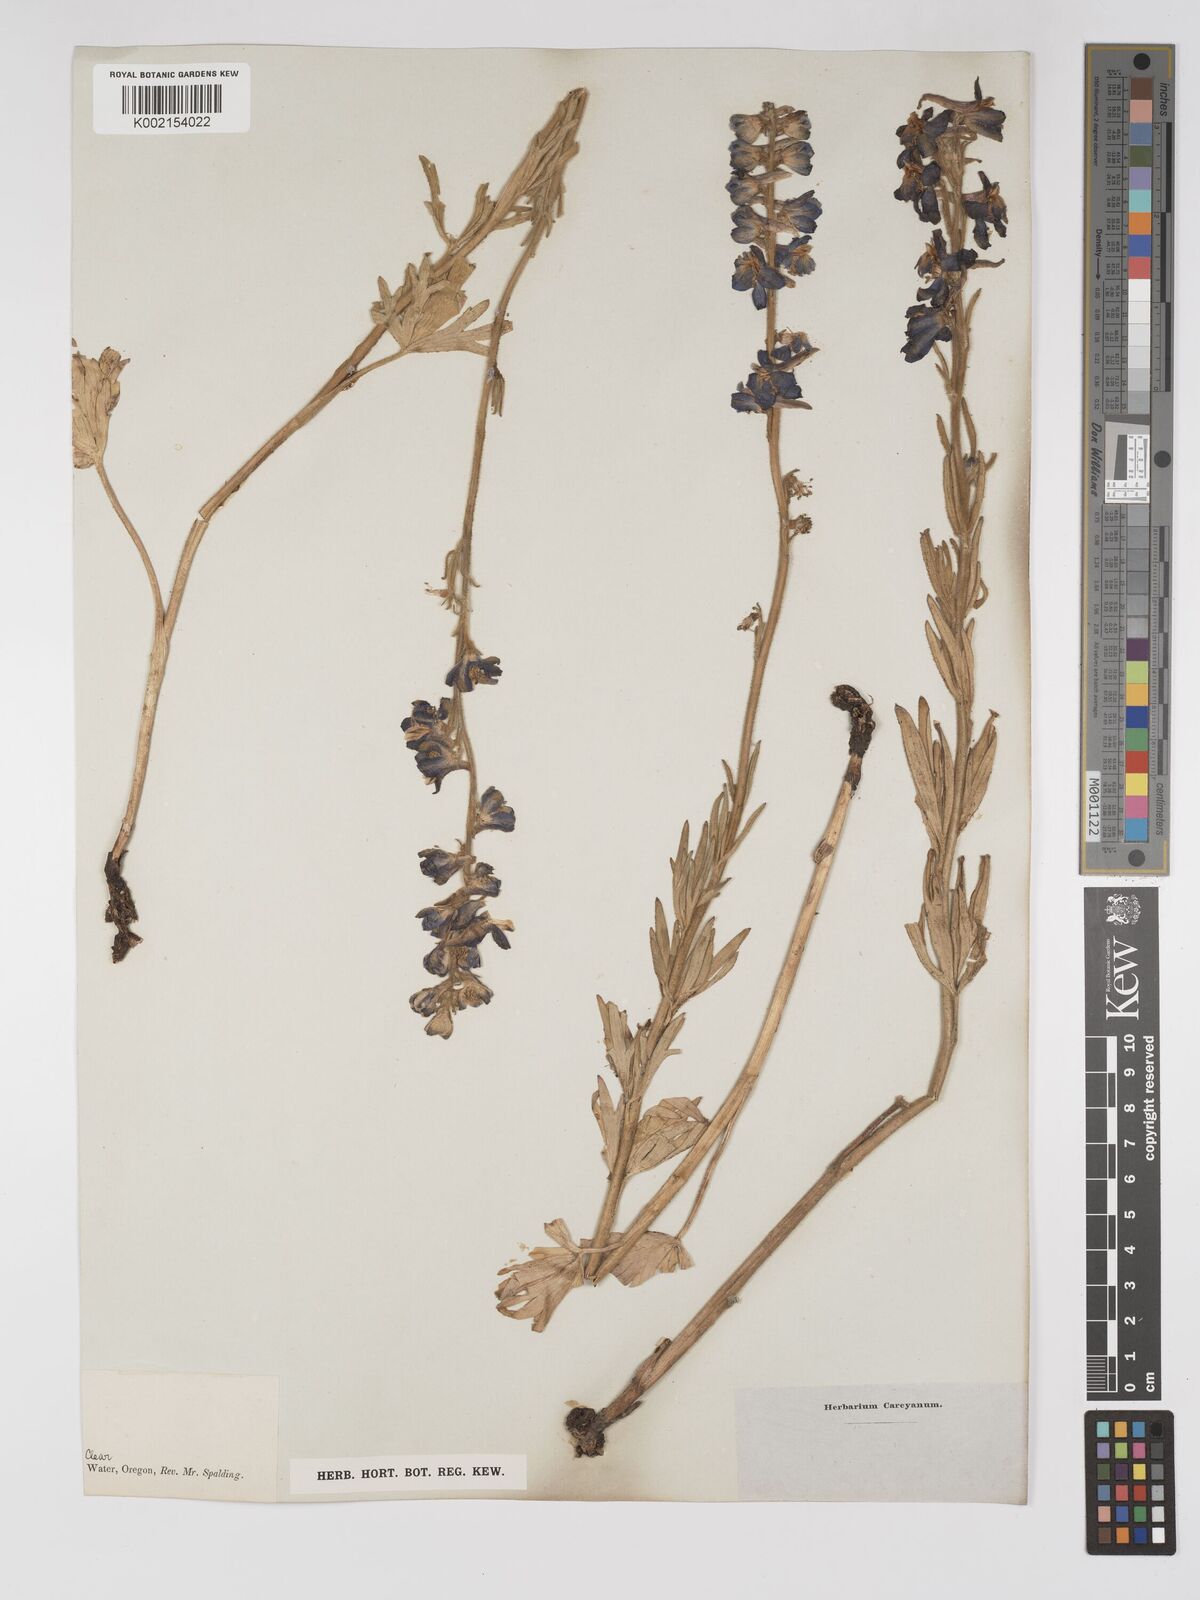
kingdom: Plantae
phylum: Tracheophyta
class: Magnoliopsida
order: Ranunculales
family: Ranunculaceae
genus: Delphinium
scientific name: Delphinium
